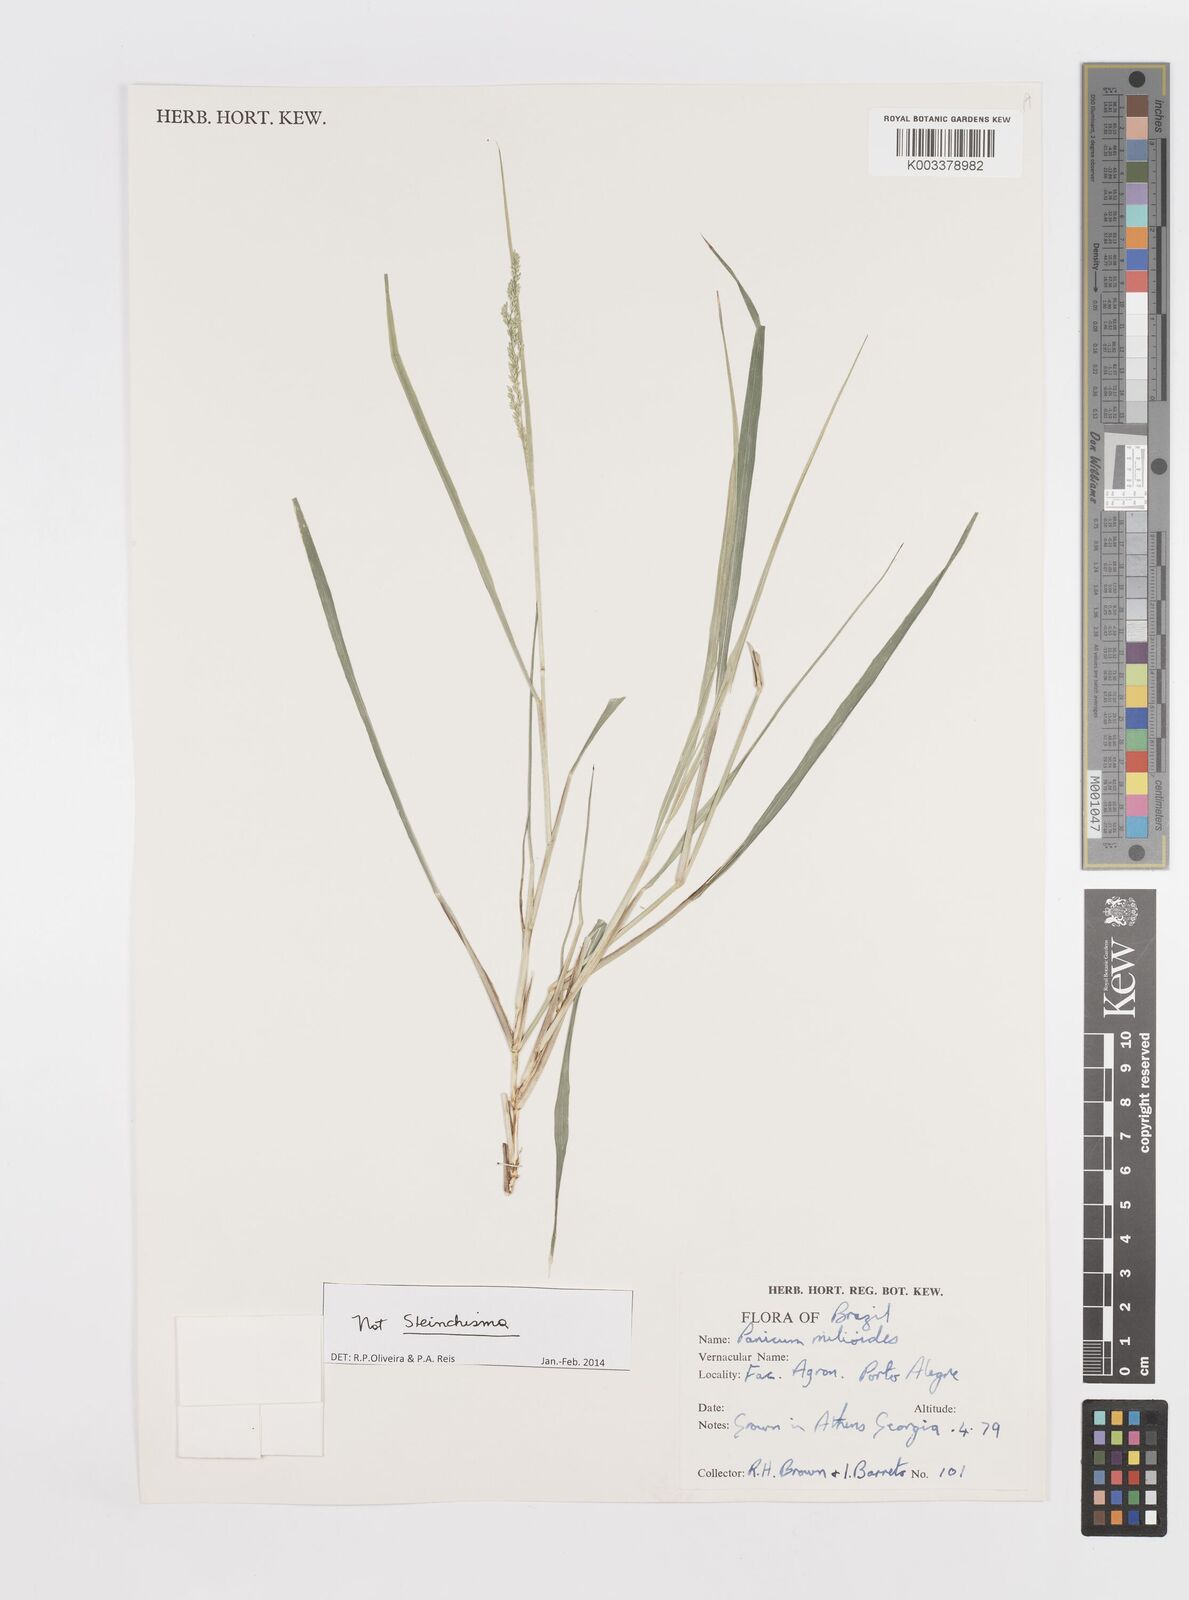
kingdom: Plantae
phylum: Tracheophyta
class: Liliopsida
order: Poales
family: Poaceae
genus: Steinchisma
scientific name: Steinchisma hians
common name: Gaping panic grass
